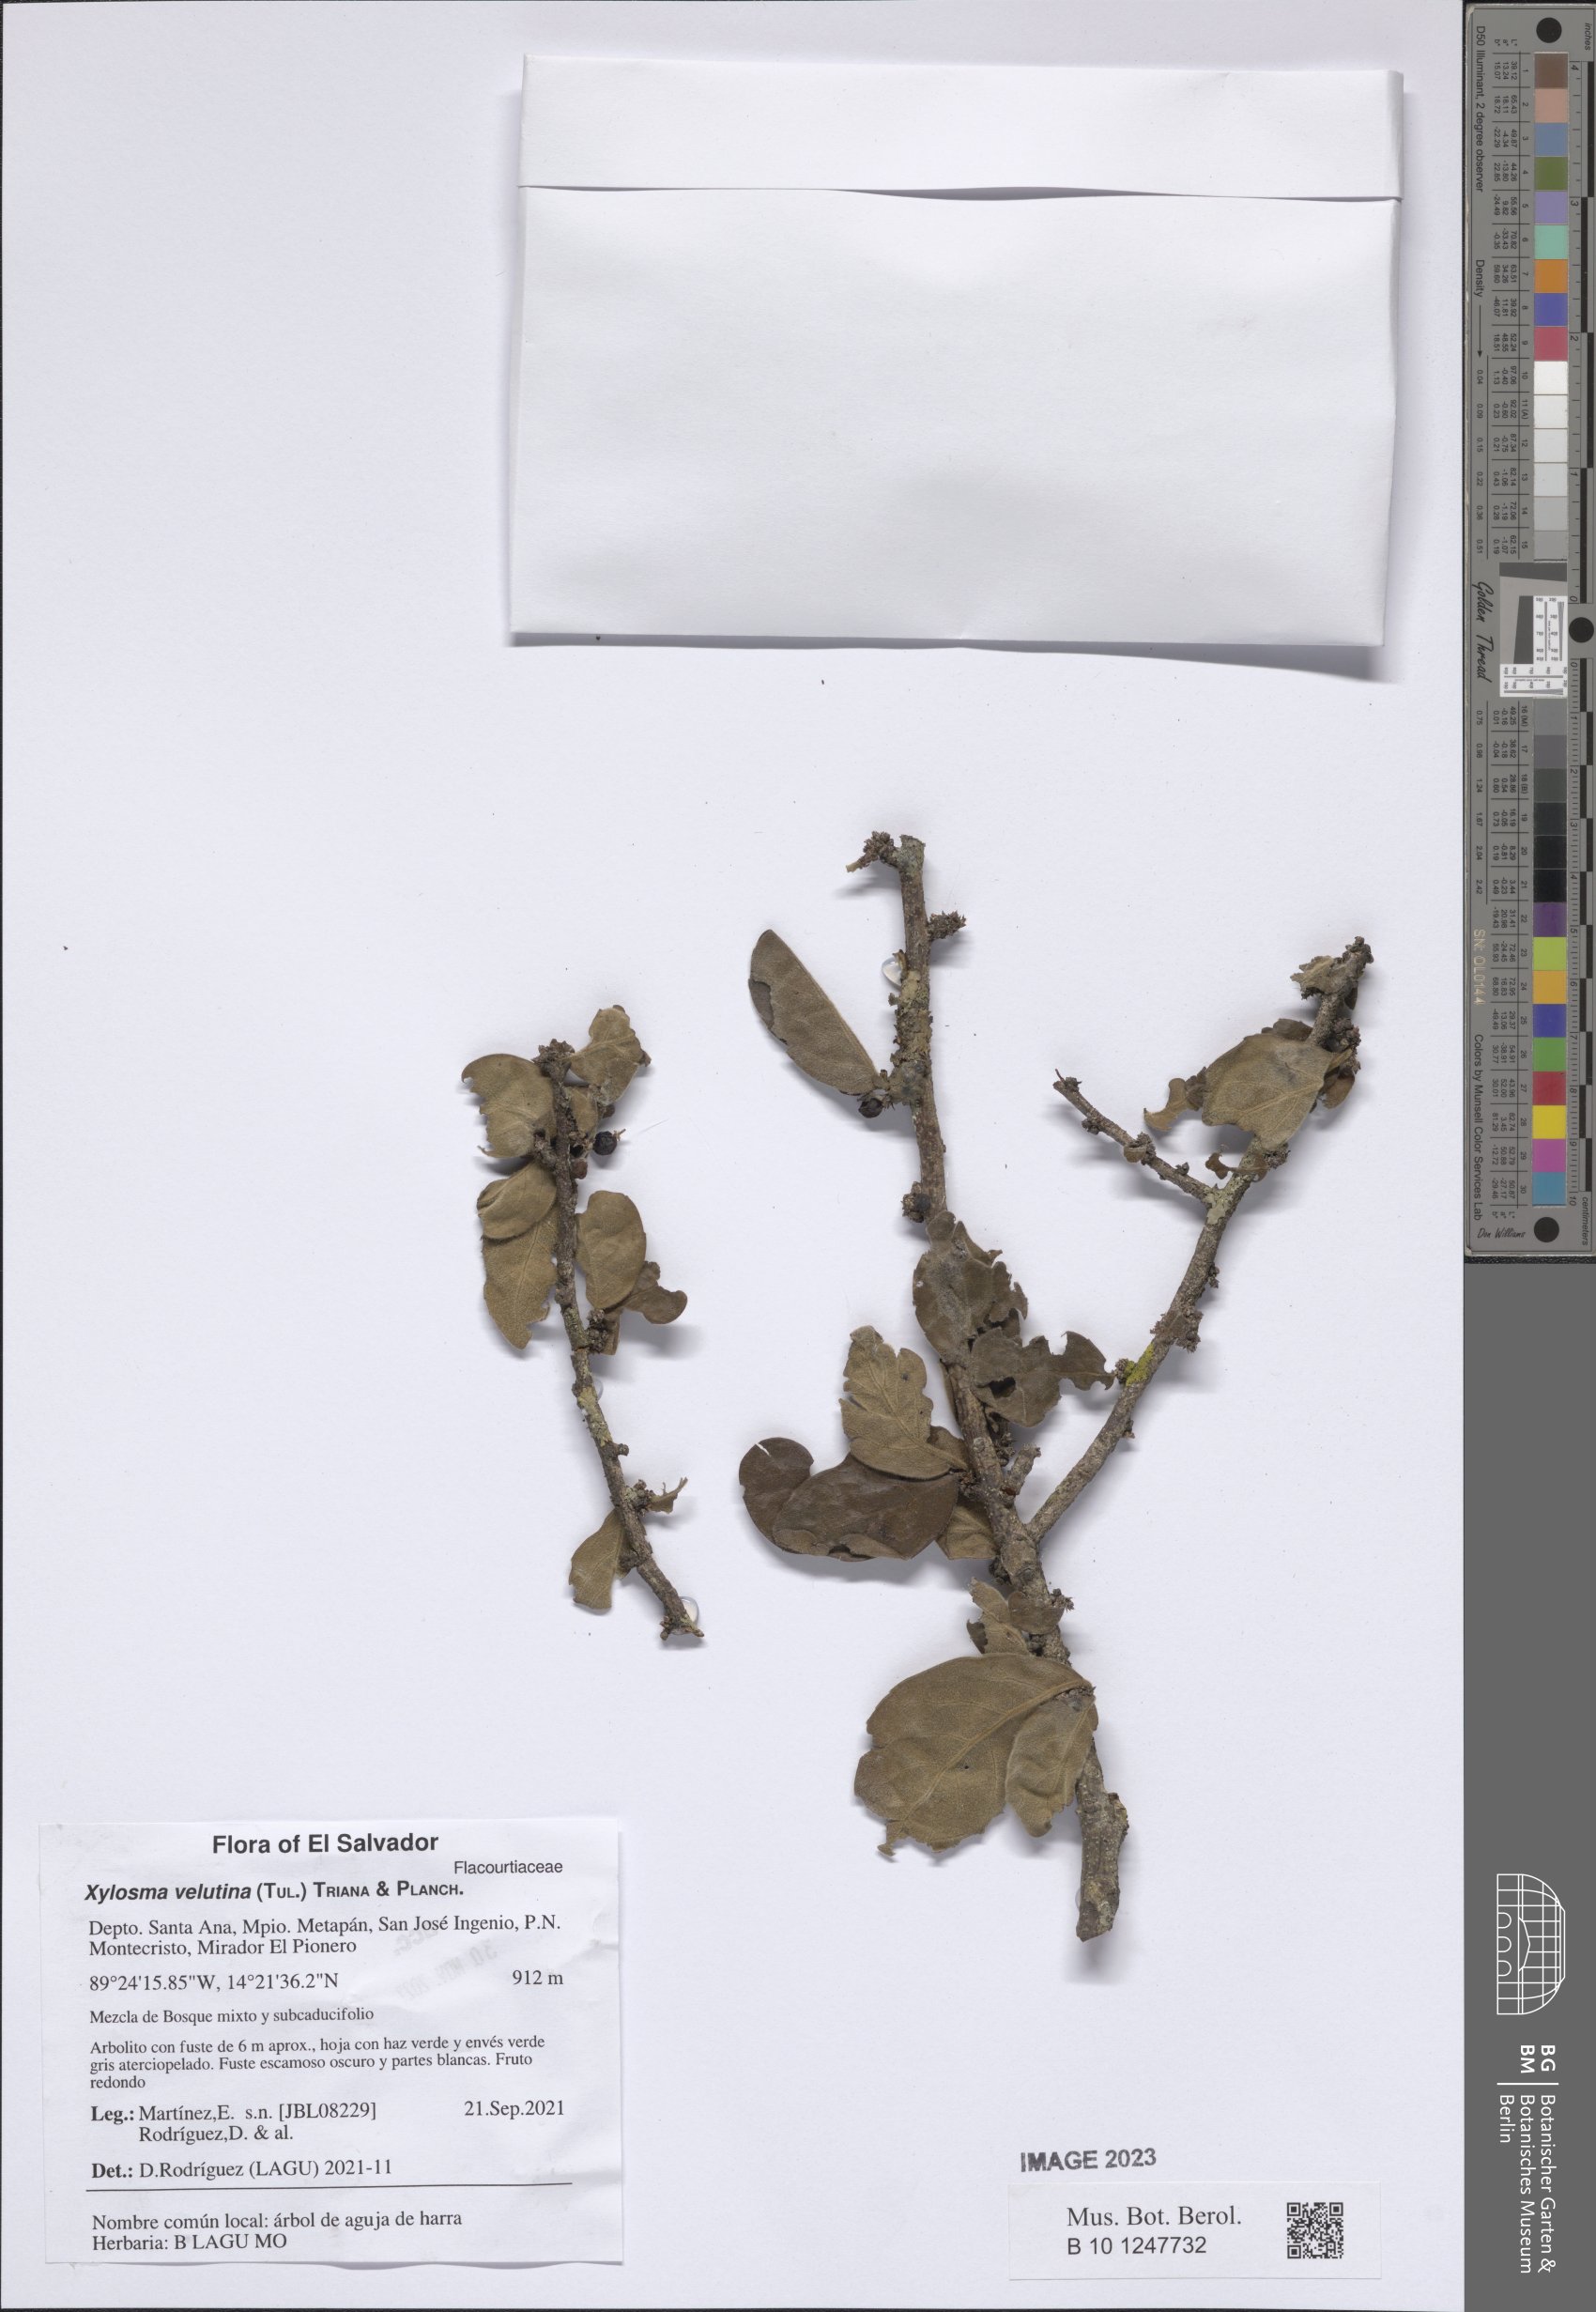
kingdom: Plantae
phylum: Tracheophyta
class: Magnoliopsida
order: Malpighiales
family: Salicaceae
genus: Xylosma
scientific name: Xylosma velutina
